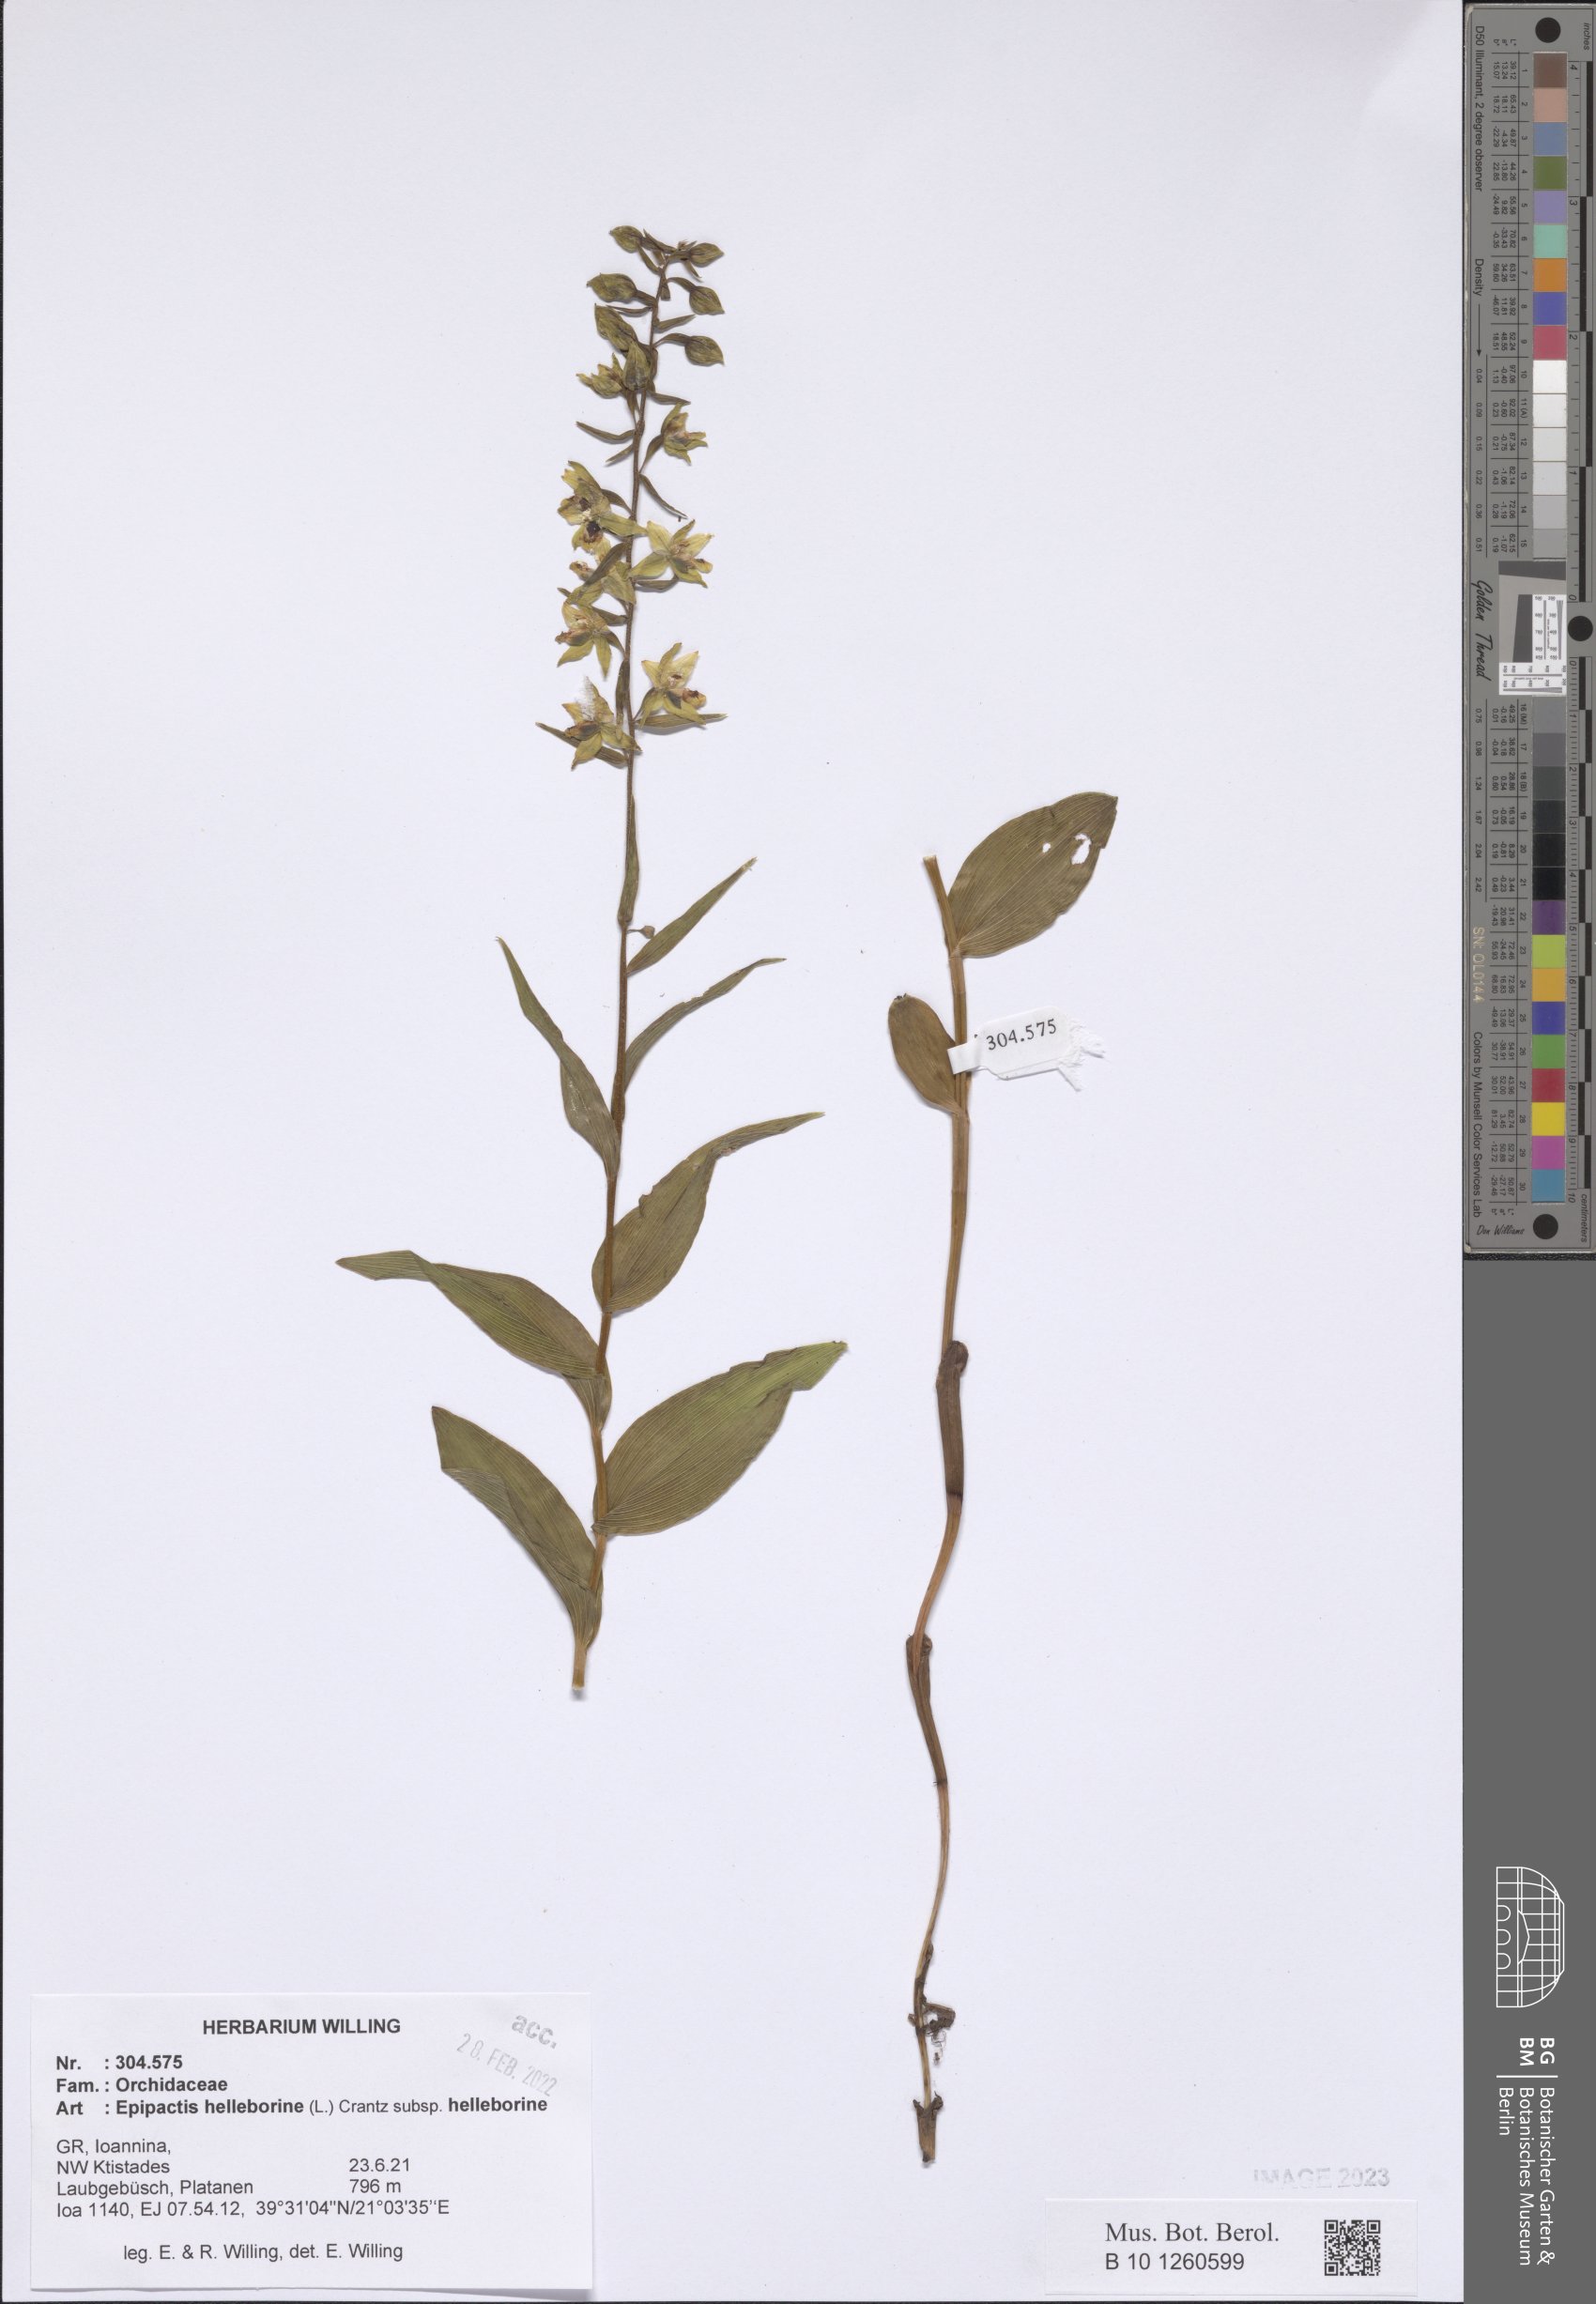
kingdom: Plantae
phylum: Tracheophyta
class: Liliopsida
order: Asparagales
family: Orchidaceae
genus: Epipactis
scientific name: Epipactis helleborine
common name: Broad-leaved helleborine
